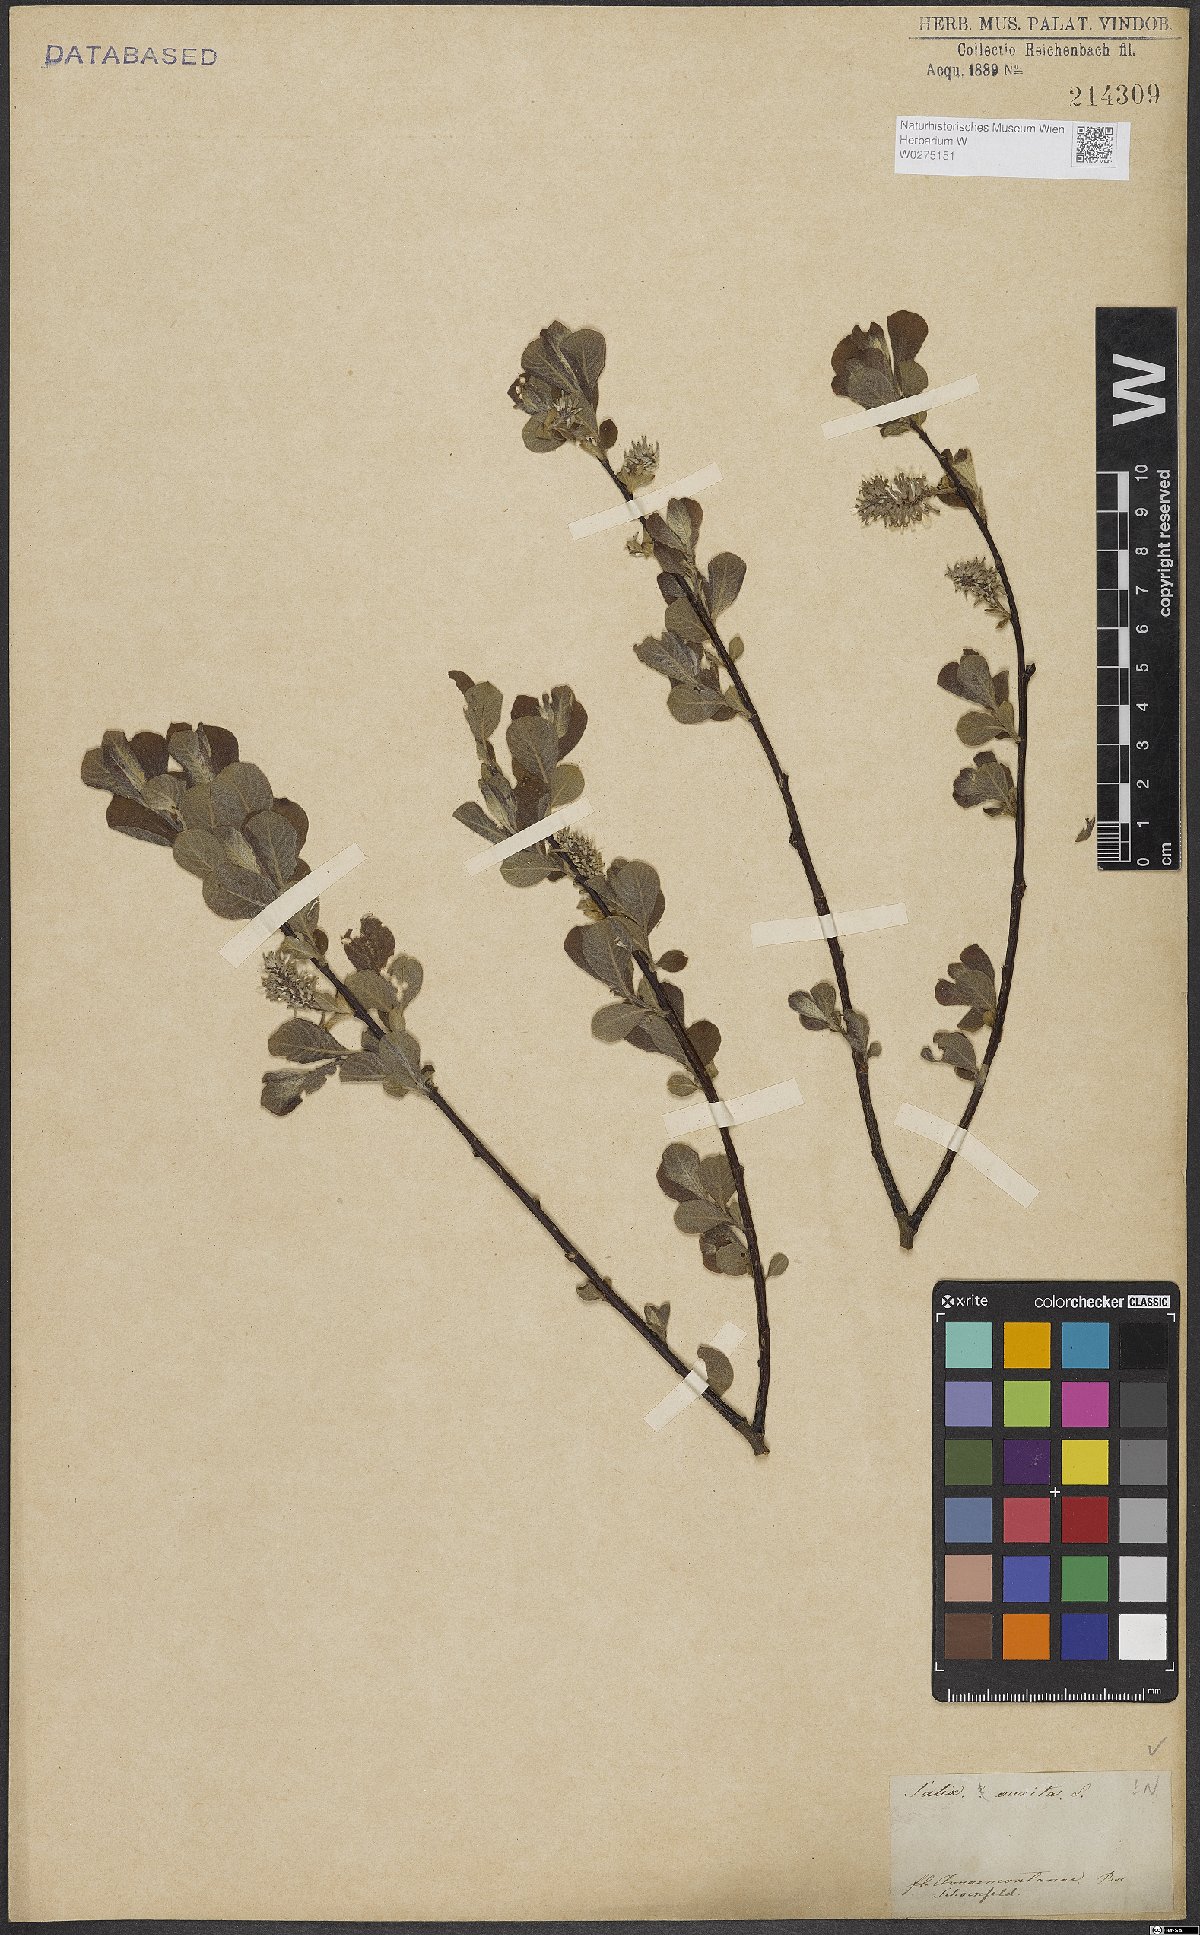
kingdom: Plantae
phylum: Tracheophyta
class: Magnoliopsida
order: Malpighiales
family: Salicaceae
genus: Salix
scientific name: Salix aurita
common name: Eared willow
